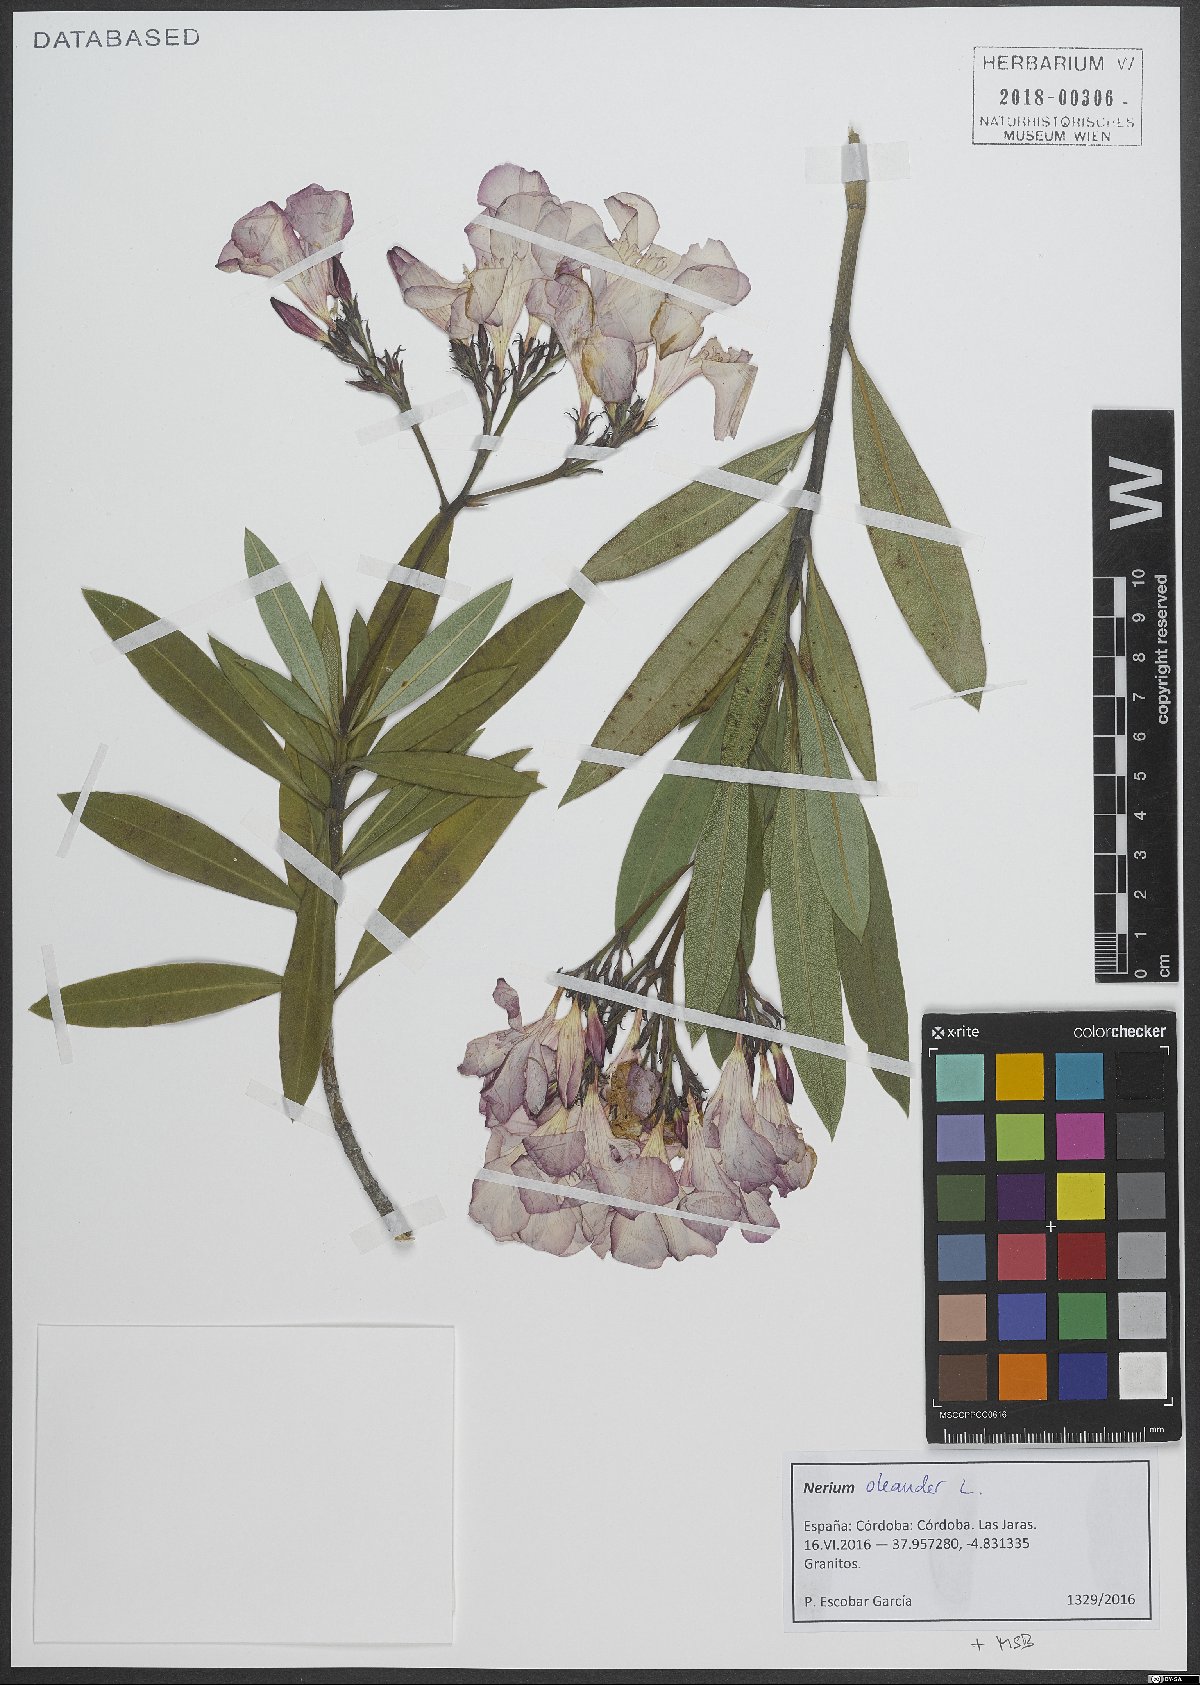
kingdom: Plantae
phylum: Tracheophyta
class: Magnoliopsida
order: Gentianales
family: Apocynaceae
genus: Nerium
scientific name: Nerium oleander
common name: Oleander
